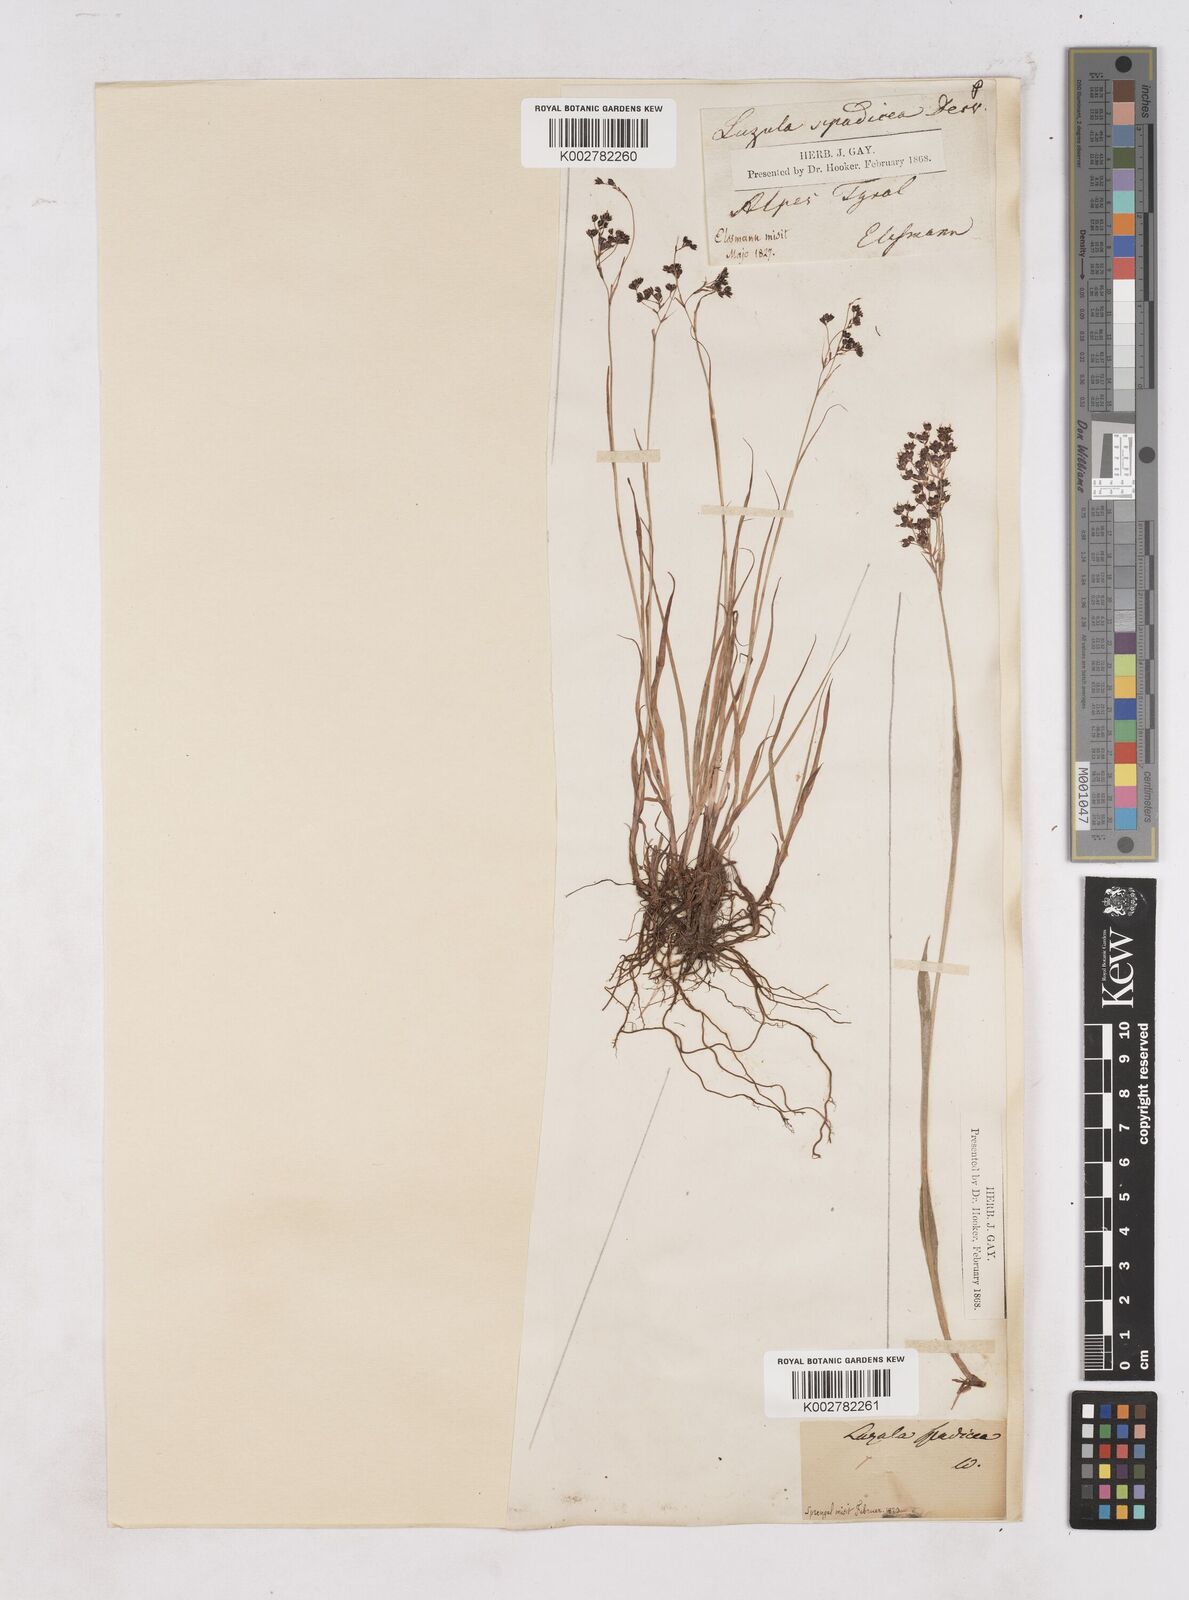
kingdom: Plantae
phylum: Tracheophyta
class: Liliopsida
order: Poales
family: Juncaceae
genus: Luzula
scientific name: Luzula alpinopilosa
